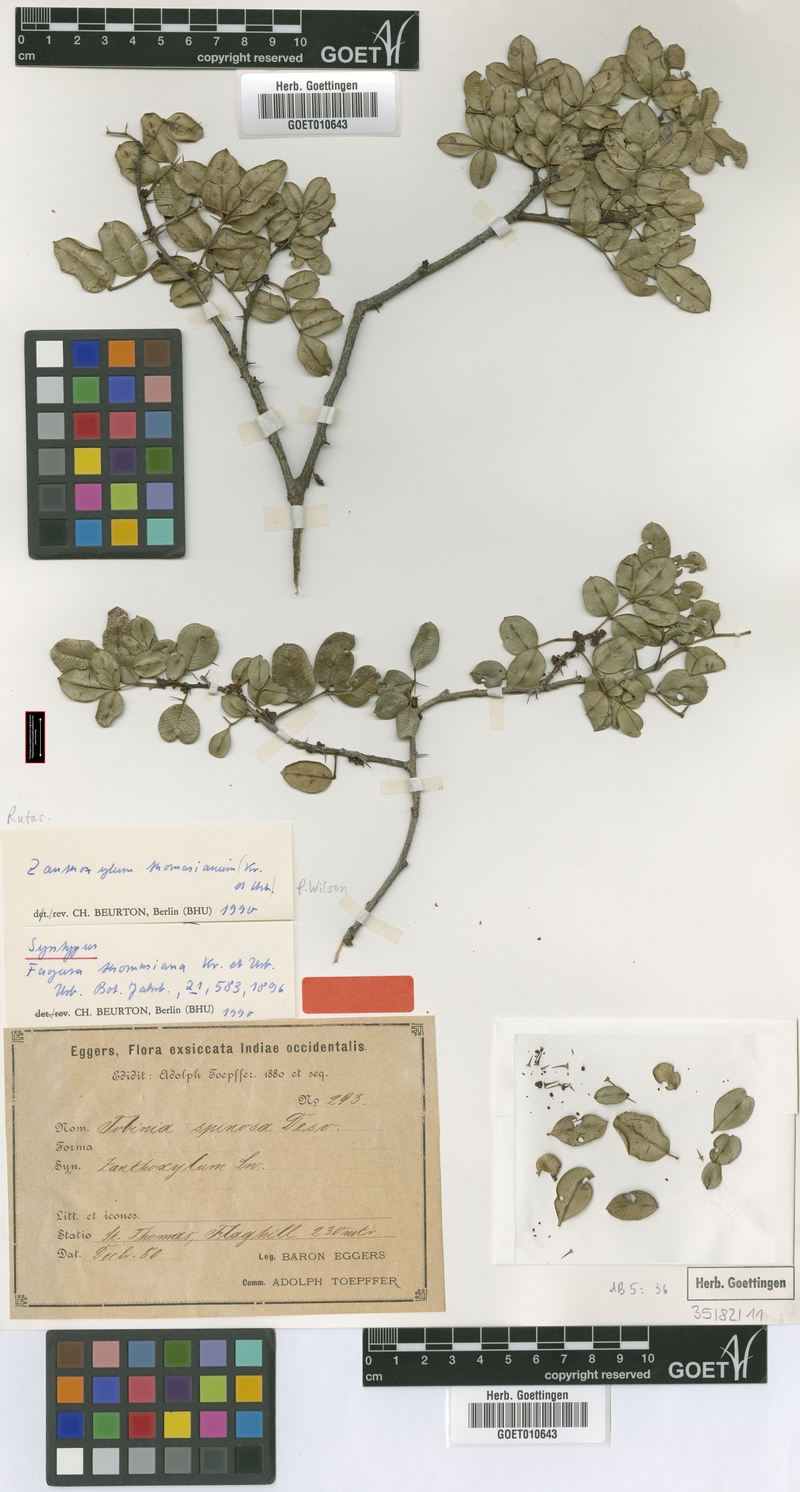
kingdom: Plantae
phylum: Tracheophyta
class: Magnoliopsida
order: Sapindales
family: Rutaceae
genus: Zanthoxylum
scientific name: Zanthoxylum punctatum
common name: Dotted pricklyash
